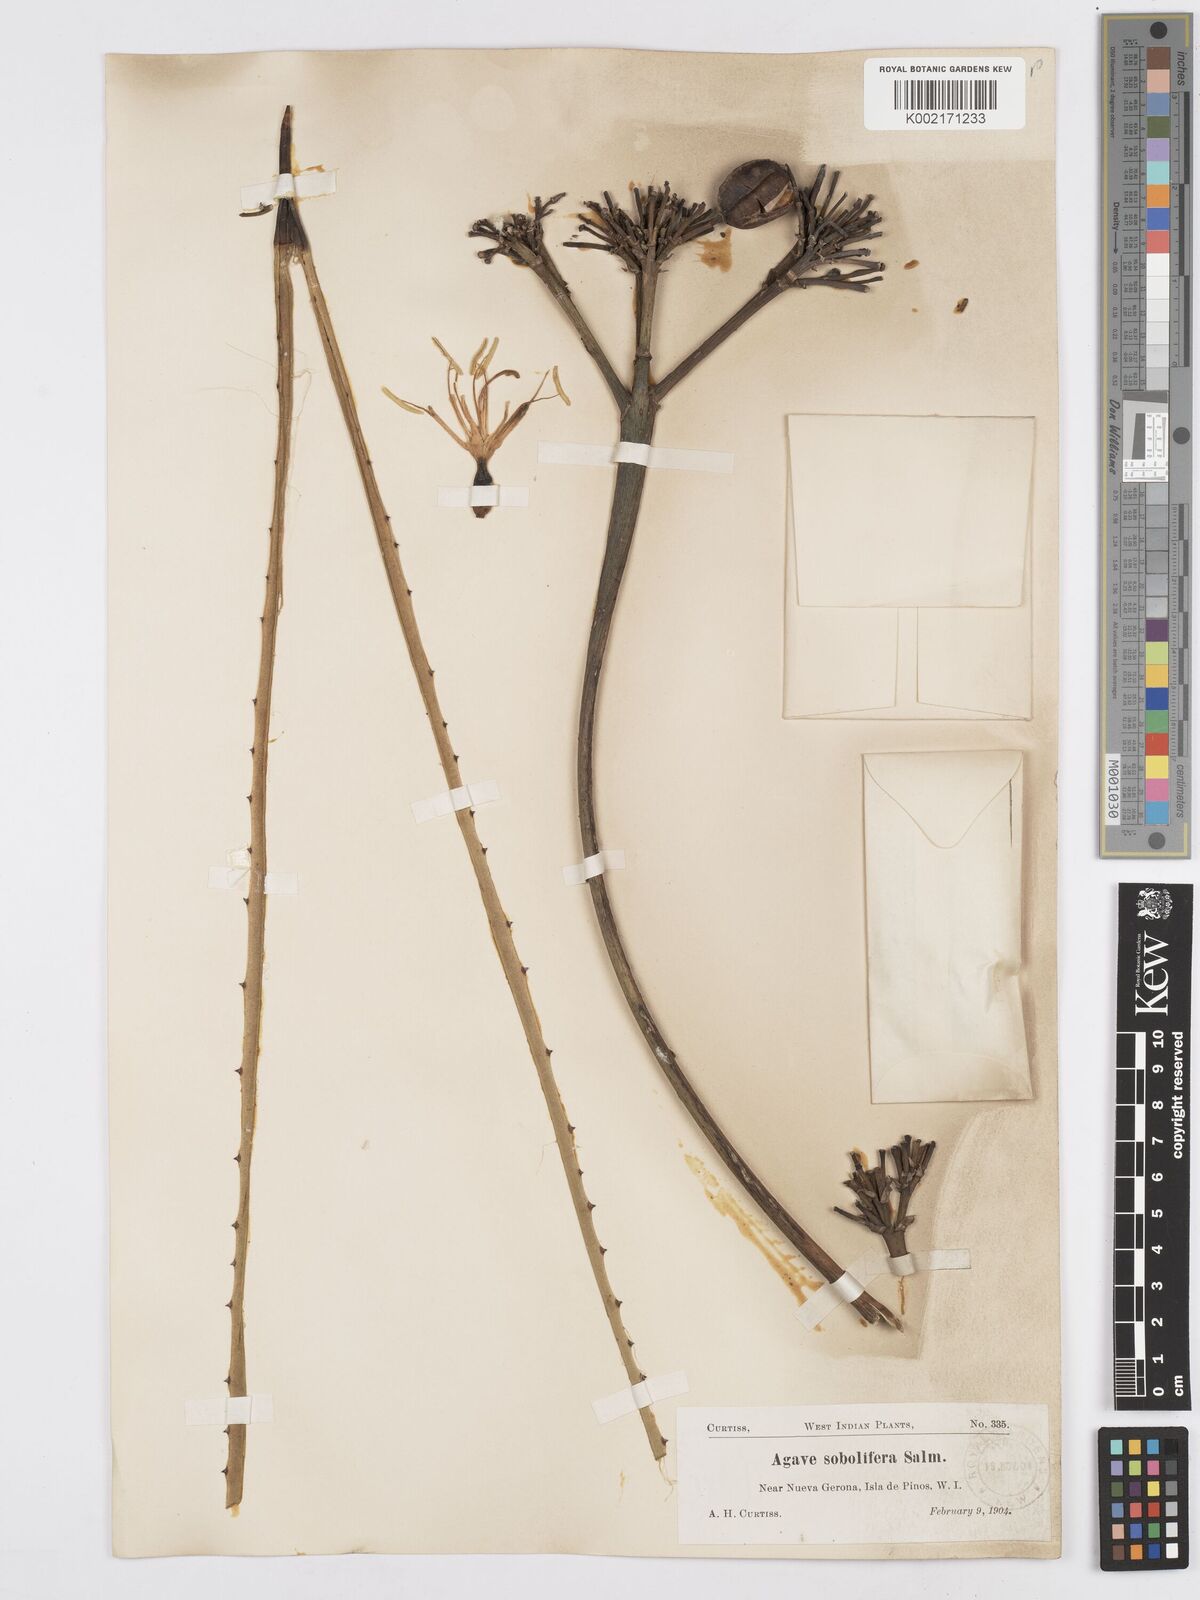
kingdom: Plantae
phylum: Tracheophyta
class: Liliopsida
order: Asparagales
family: Asparagaceae
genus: Agave
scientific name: Agave
